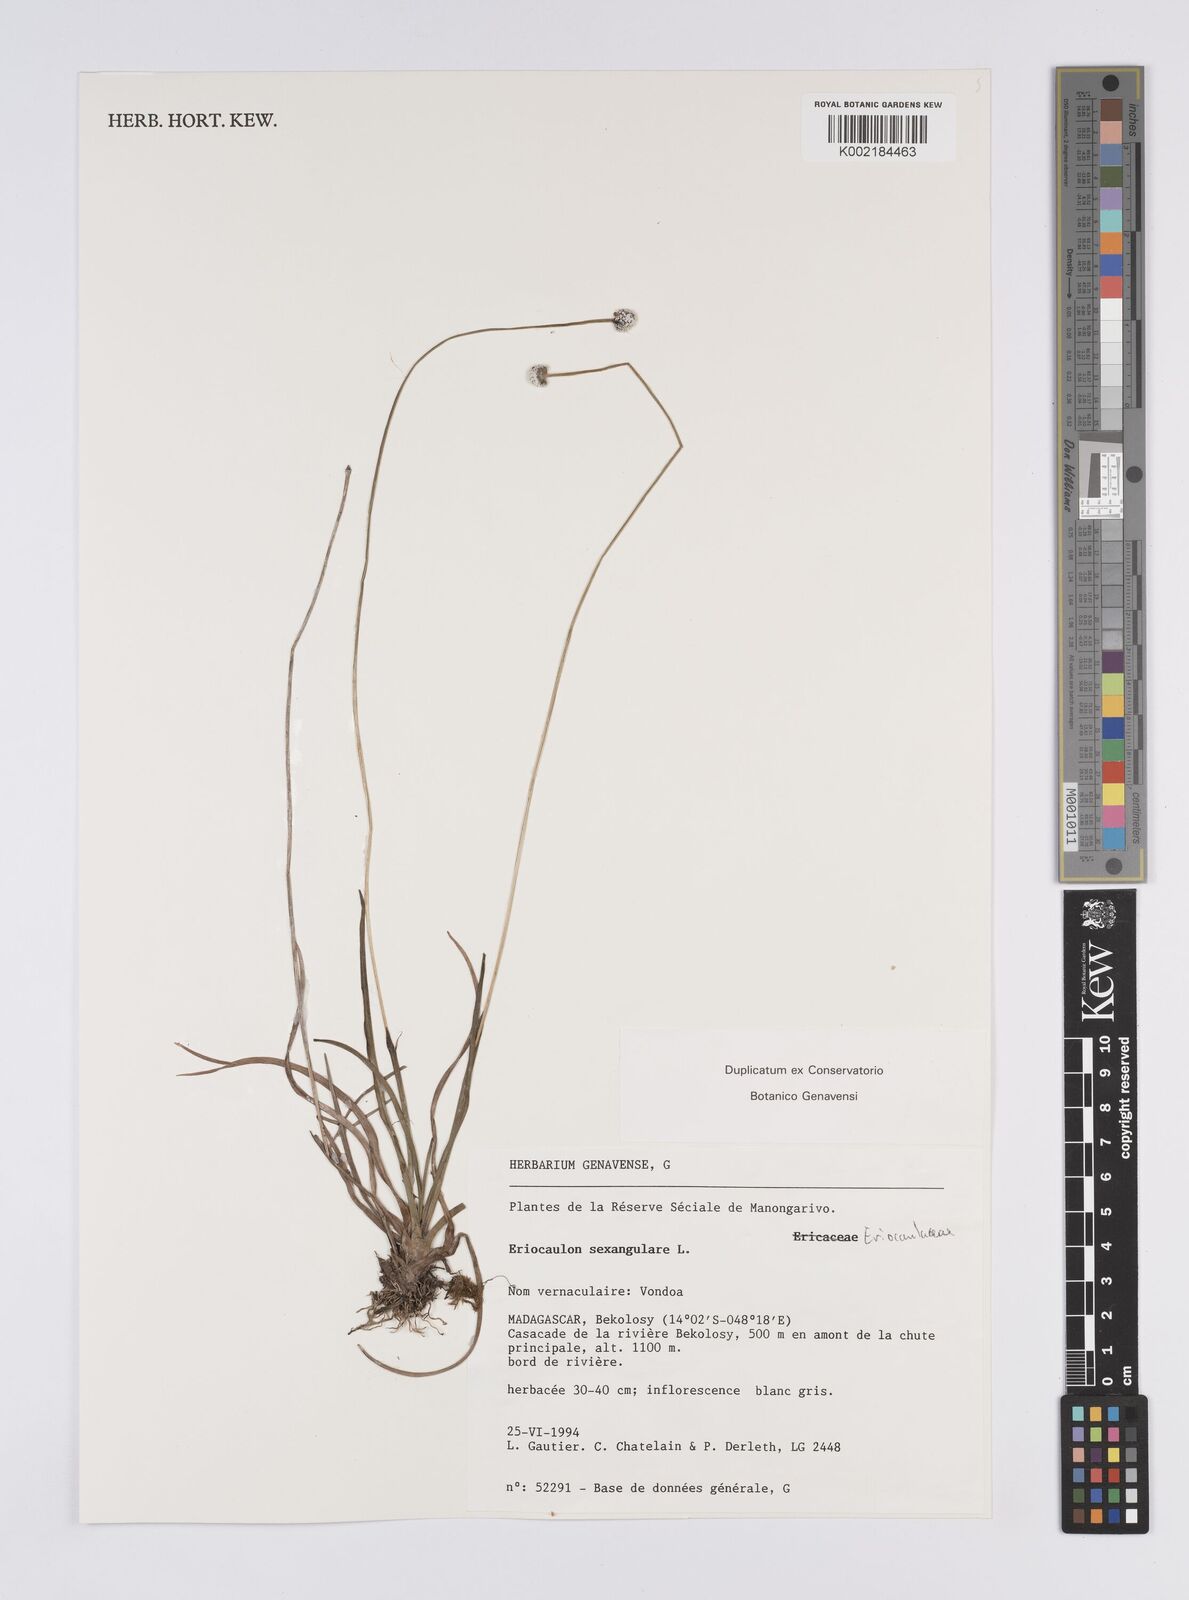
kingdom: Plantae
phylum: Tracheophyta
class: Liliopsida
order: Poales
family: Eriocaulaceae
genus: Eriocaulon
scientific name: Eriocaulon sexangulare
